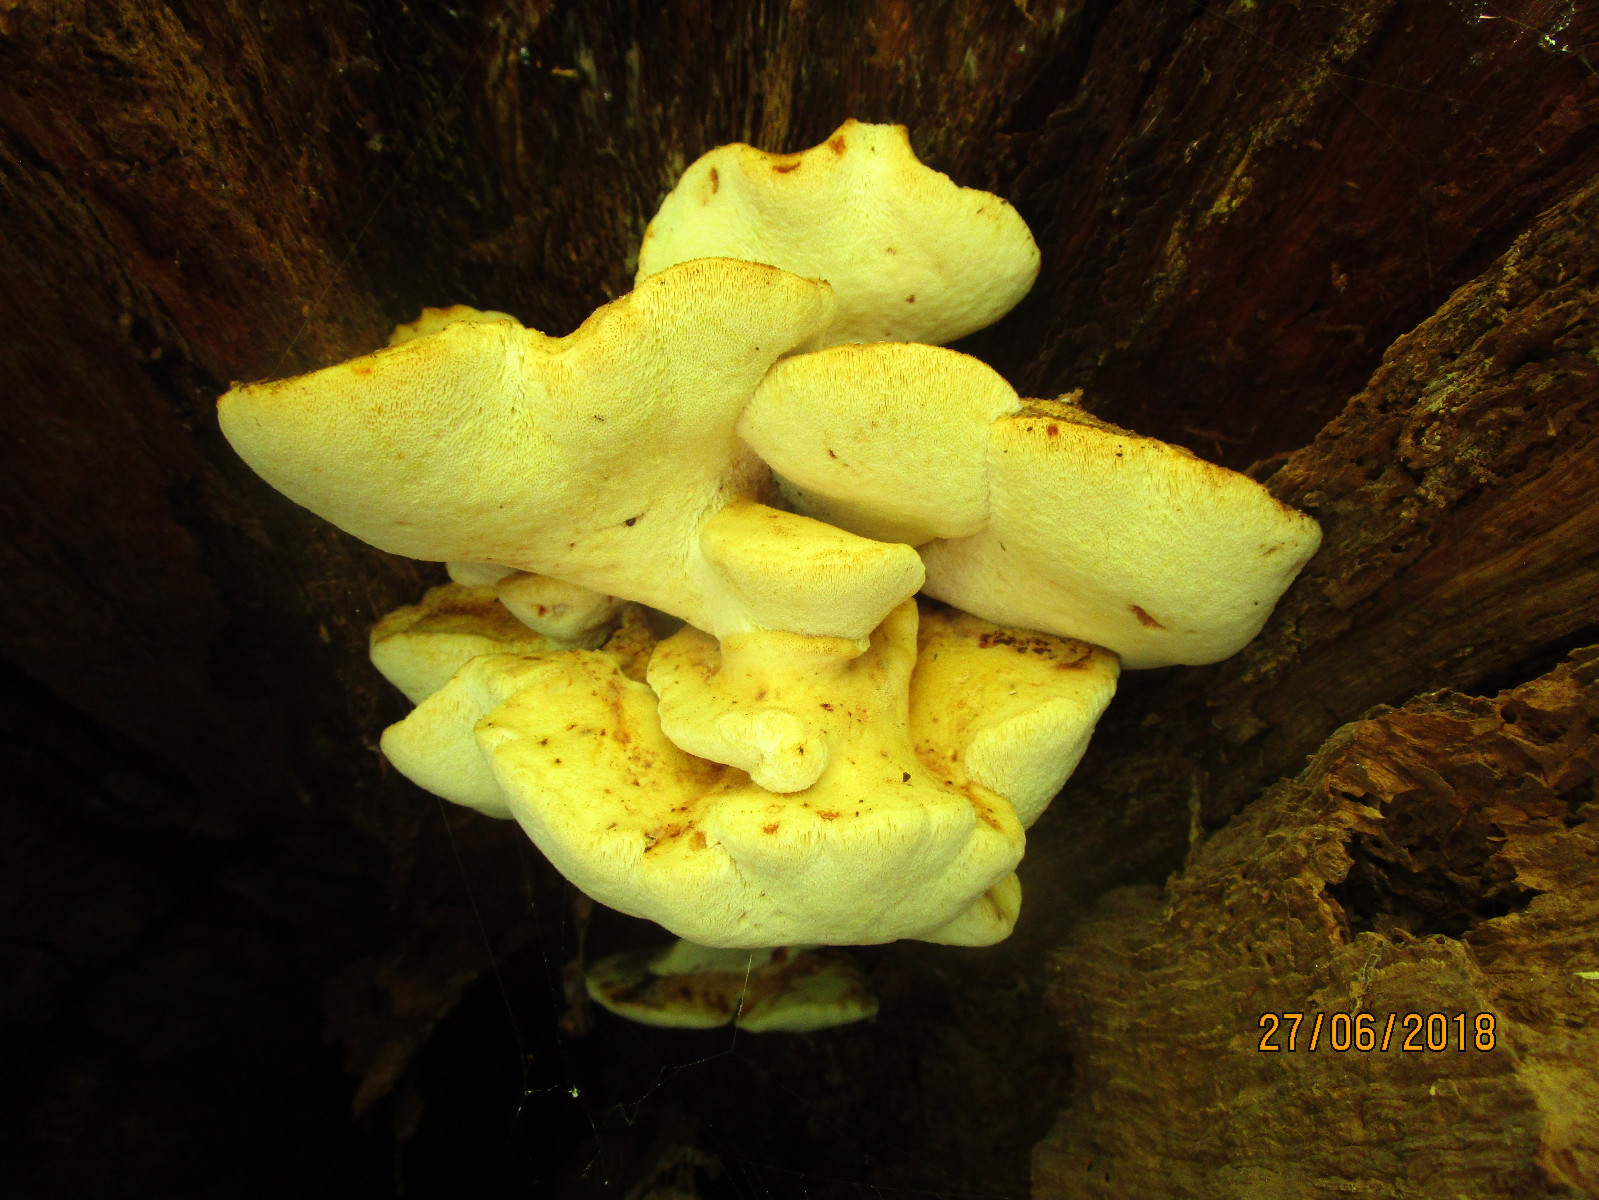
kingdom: Fungi
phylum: Basidiomycota
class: Agaricomycetes
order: Polyporales
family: Fomitopsidaceae
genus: Buglossoporus
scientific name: Buglossoporus quercinus
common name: egetunge
